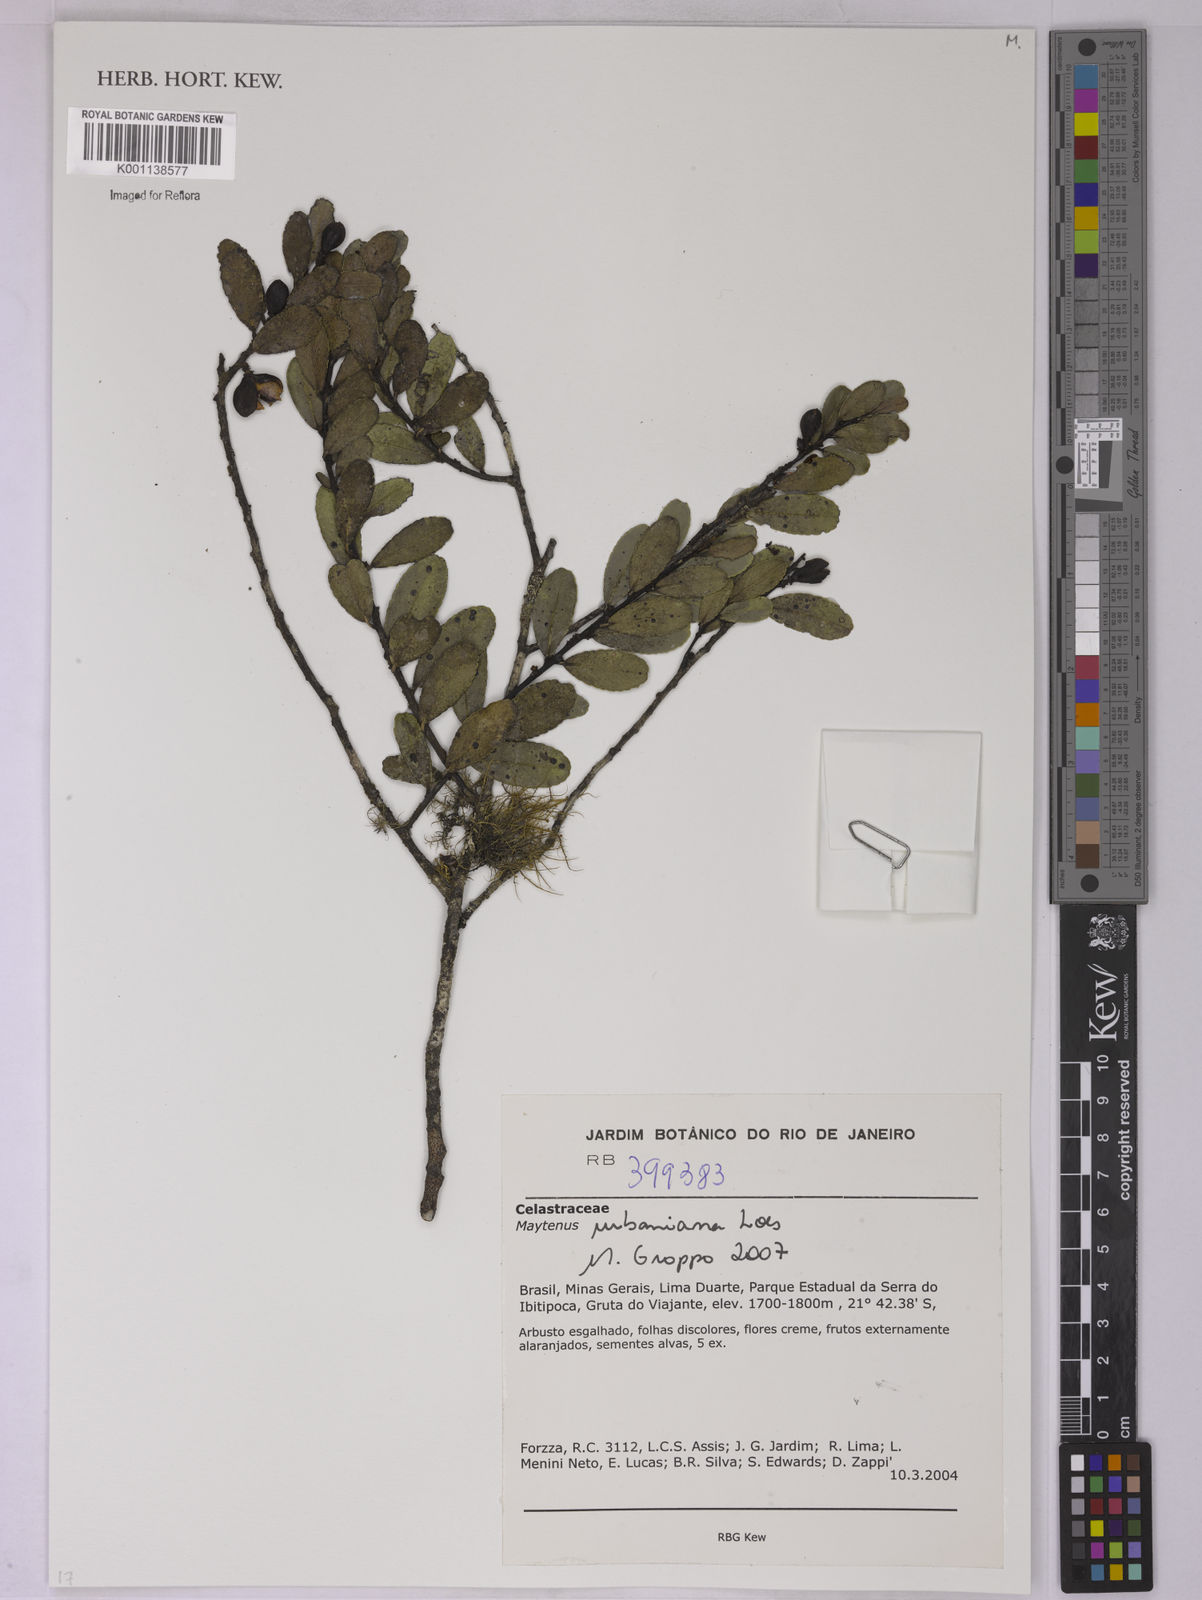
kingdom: Plantae
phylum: Tracheophyta
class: Magnoliopsida
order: Celastrales
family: Celastraceae
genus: Monteverdia
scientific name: Monteverdia urbaniana
